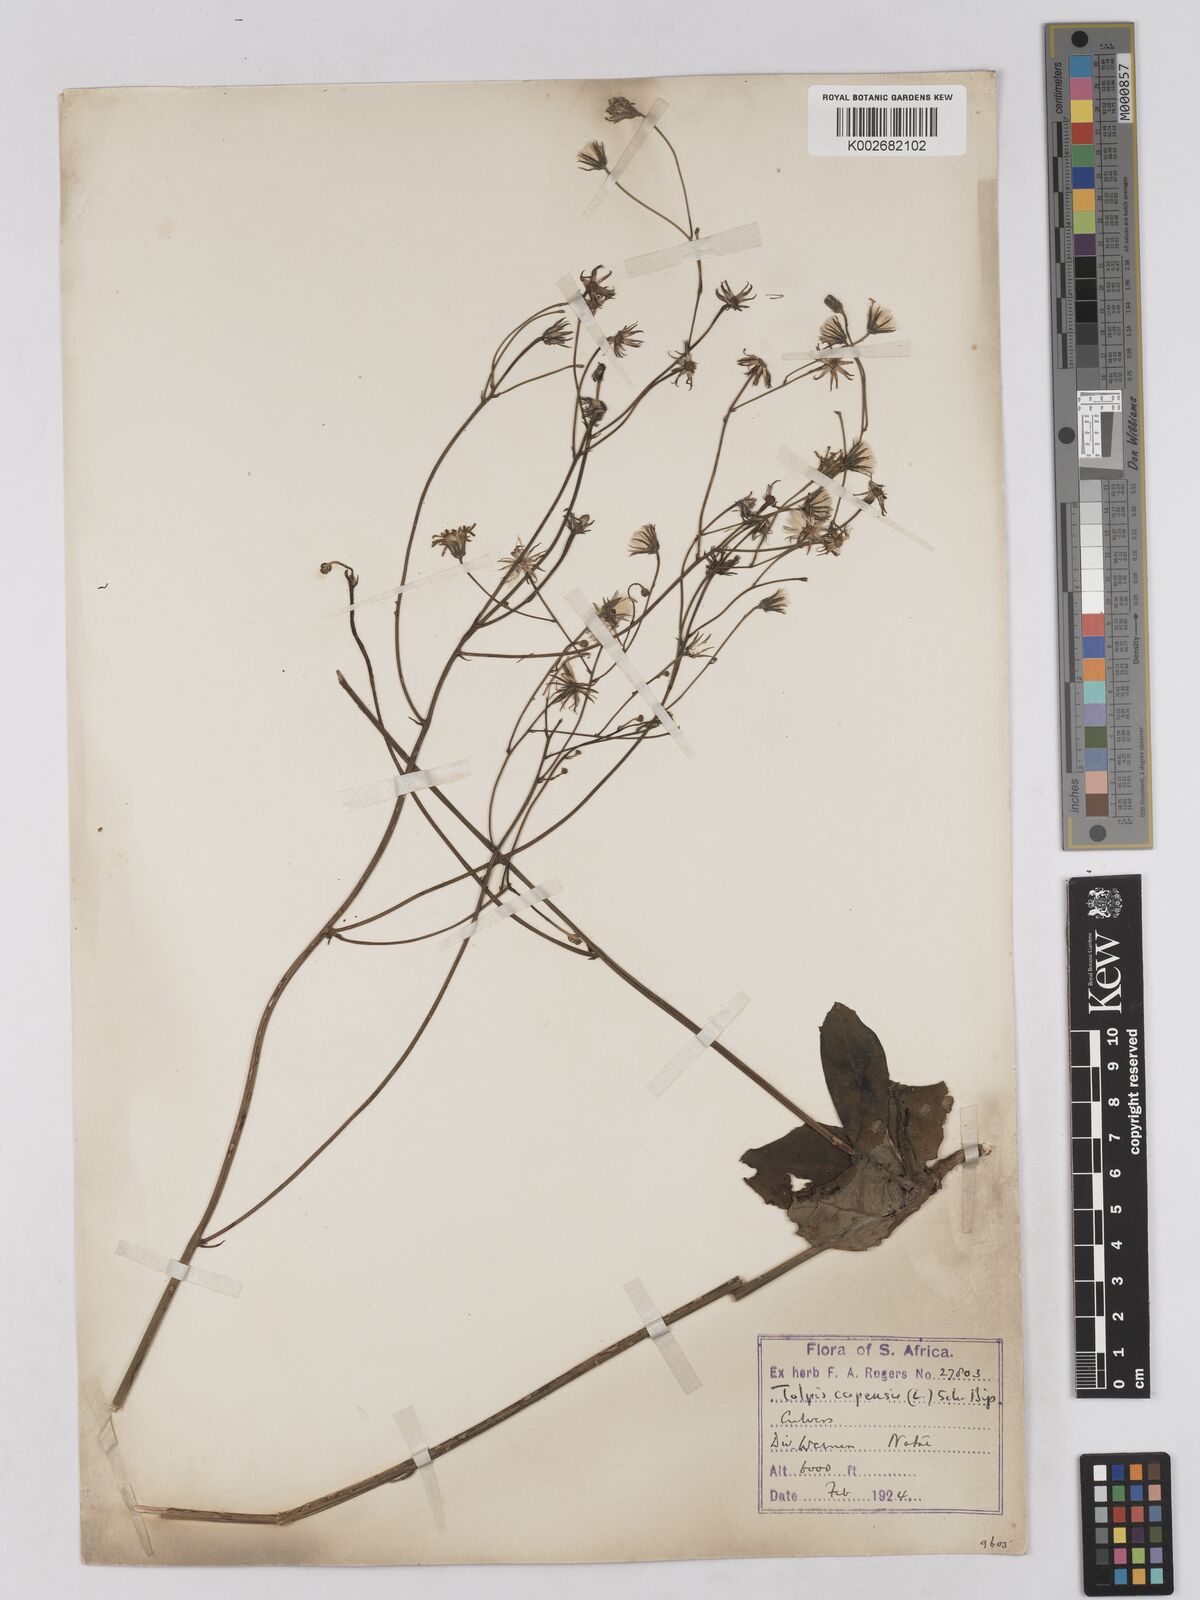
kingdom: Plantae
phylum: Tracheophyta
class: Magnoliopsida
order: Asterales
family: Asteraceae
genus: Tolpis
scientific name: Tolpis capensis
